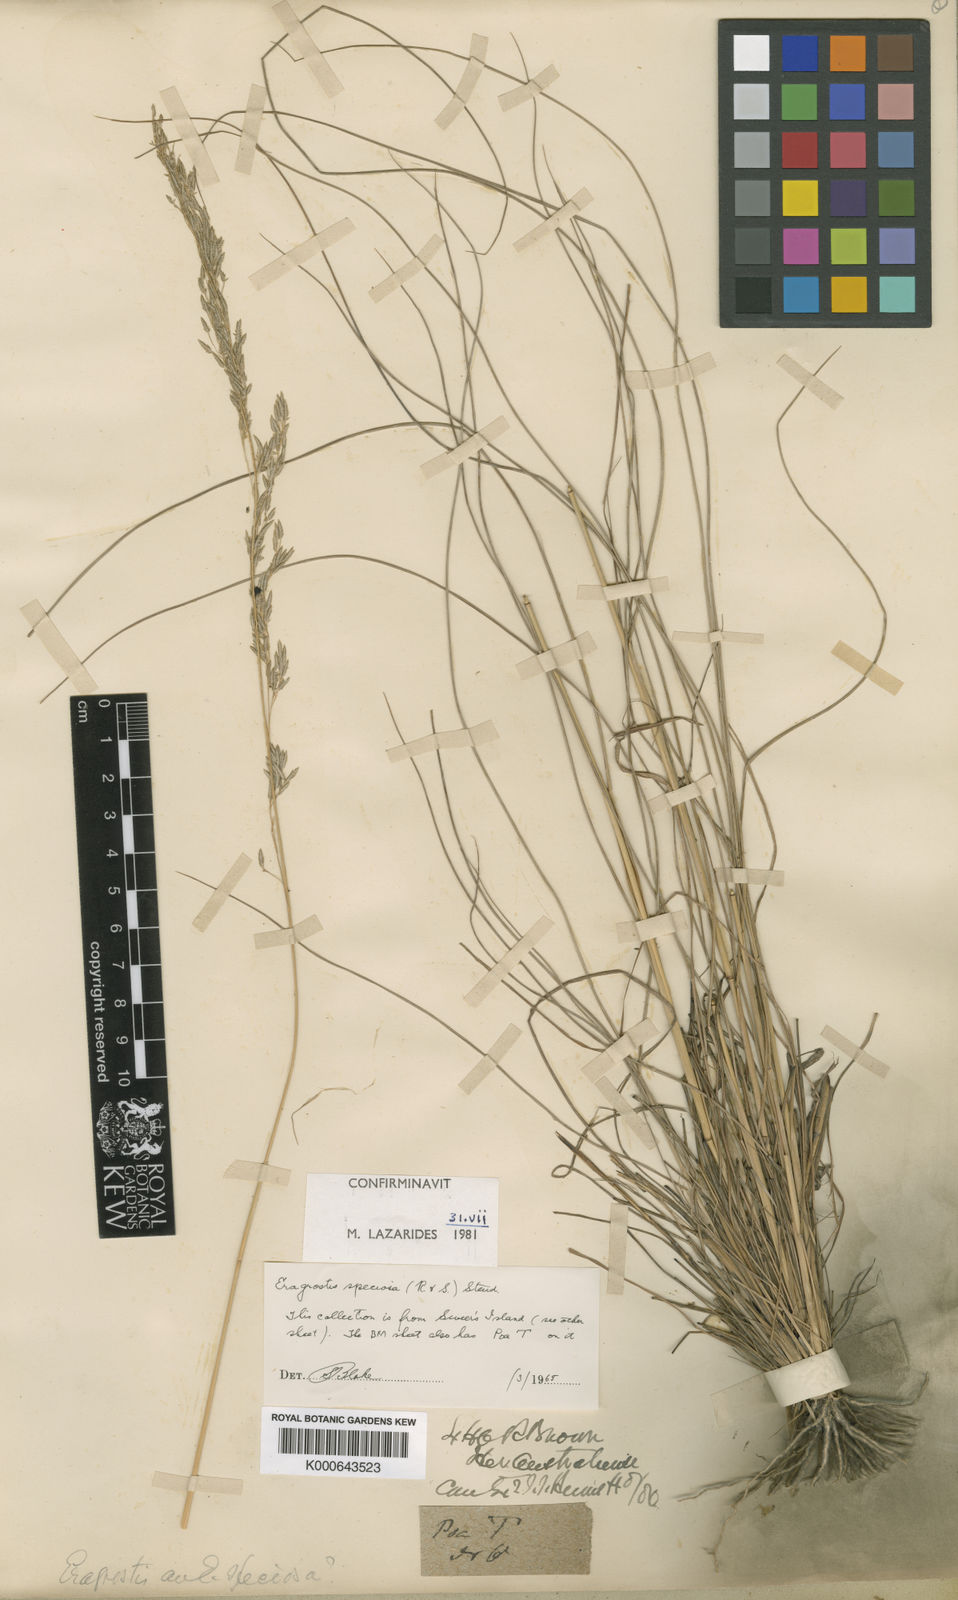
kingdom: Plantae
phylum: Tracheophyta
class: Liliopsida
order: Poales
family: Poaceae
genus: Eragrostis
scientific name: Eragrostis speciosa
